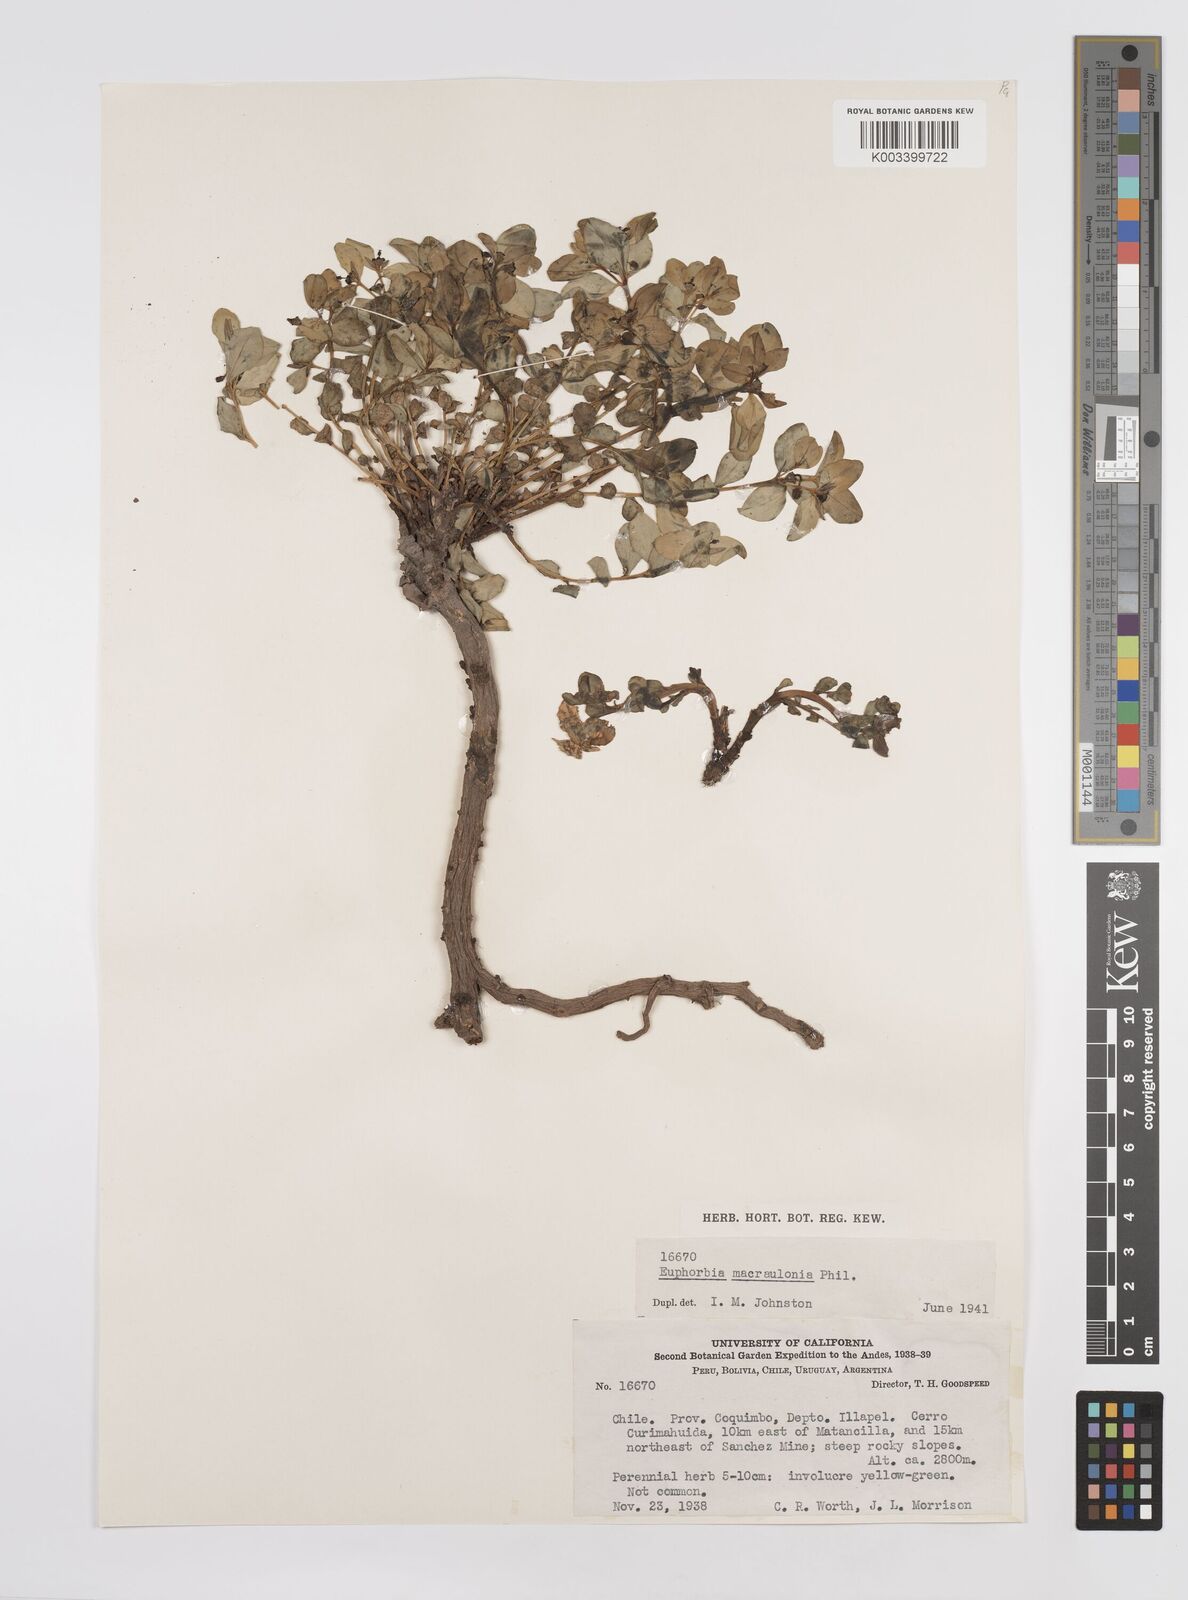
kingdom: Plantae
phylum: Tracheophyta
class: Magnoliopsida
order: Malpighiales
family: Euphorbiaceae
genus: Euphorbia
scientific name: Euphorbia macraulonia
